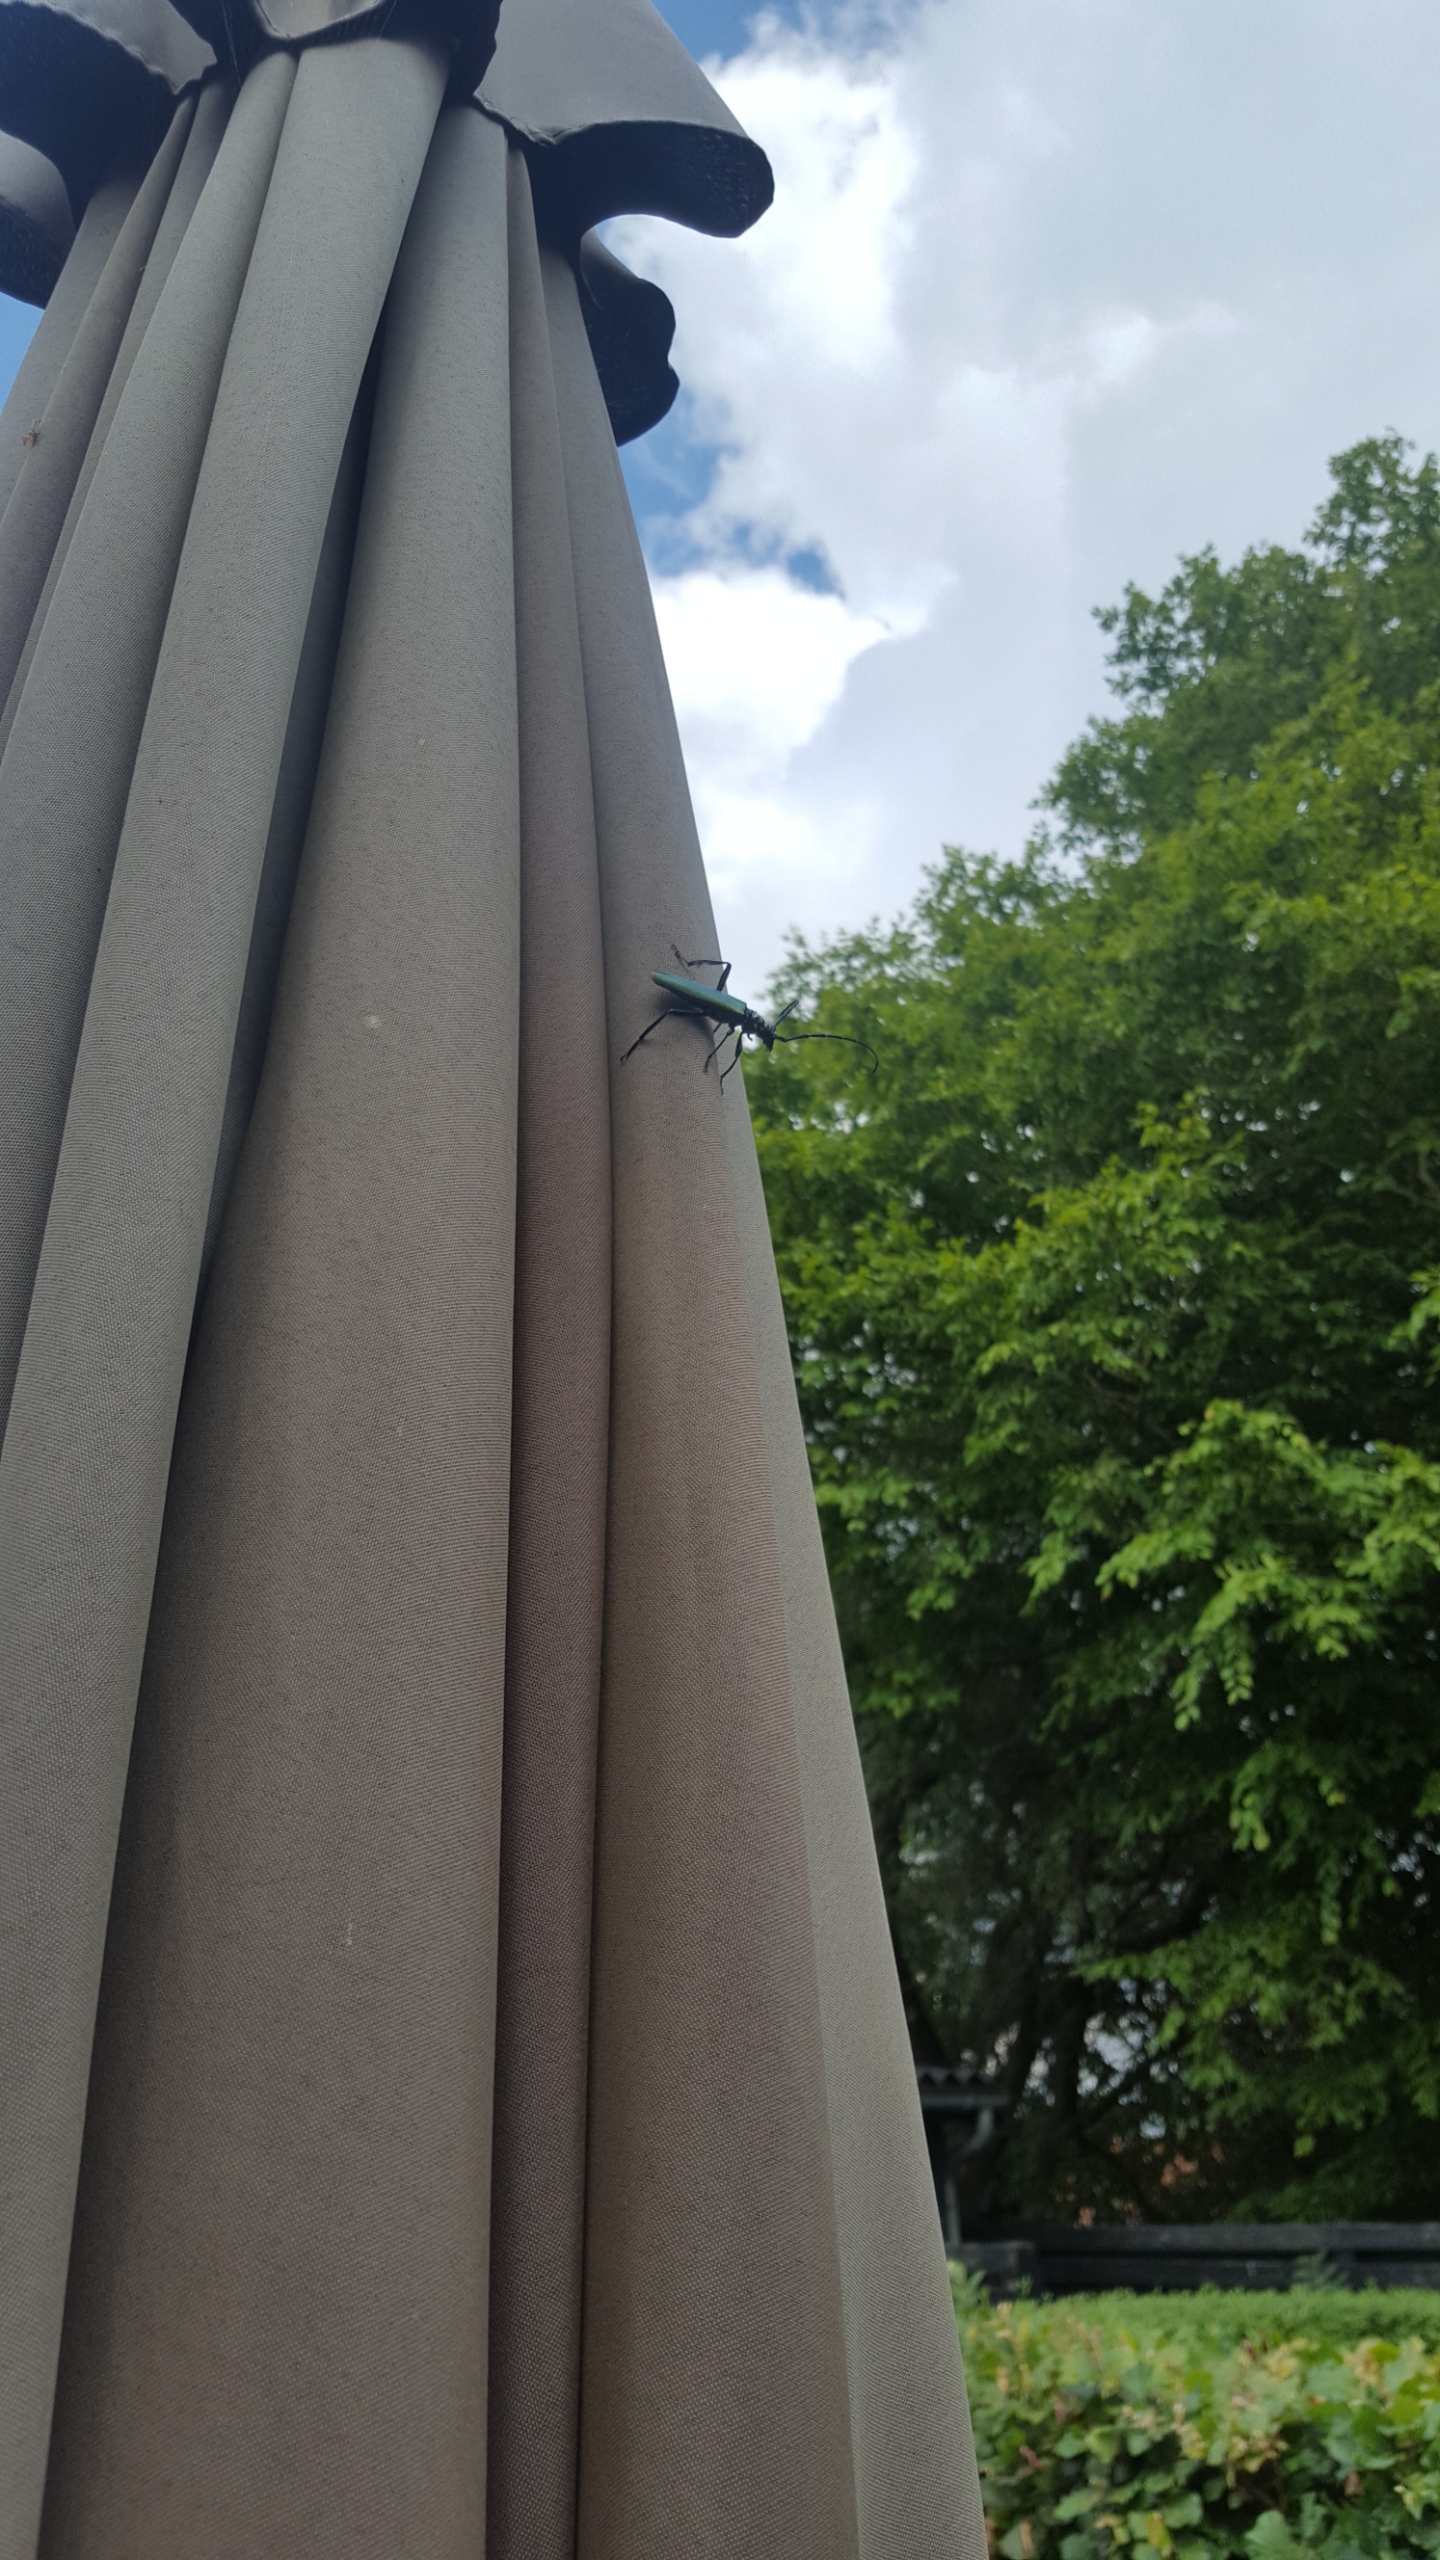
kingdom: Animalia
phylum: Arthropoda
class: Insecta
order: Coleoptera
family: Cerambycidae
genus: Aromia
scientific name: Aromia moschata
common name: Moskusbuk
